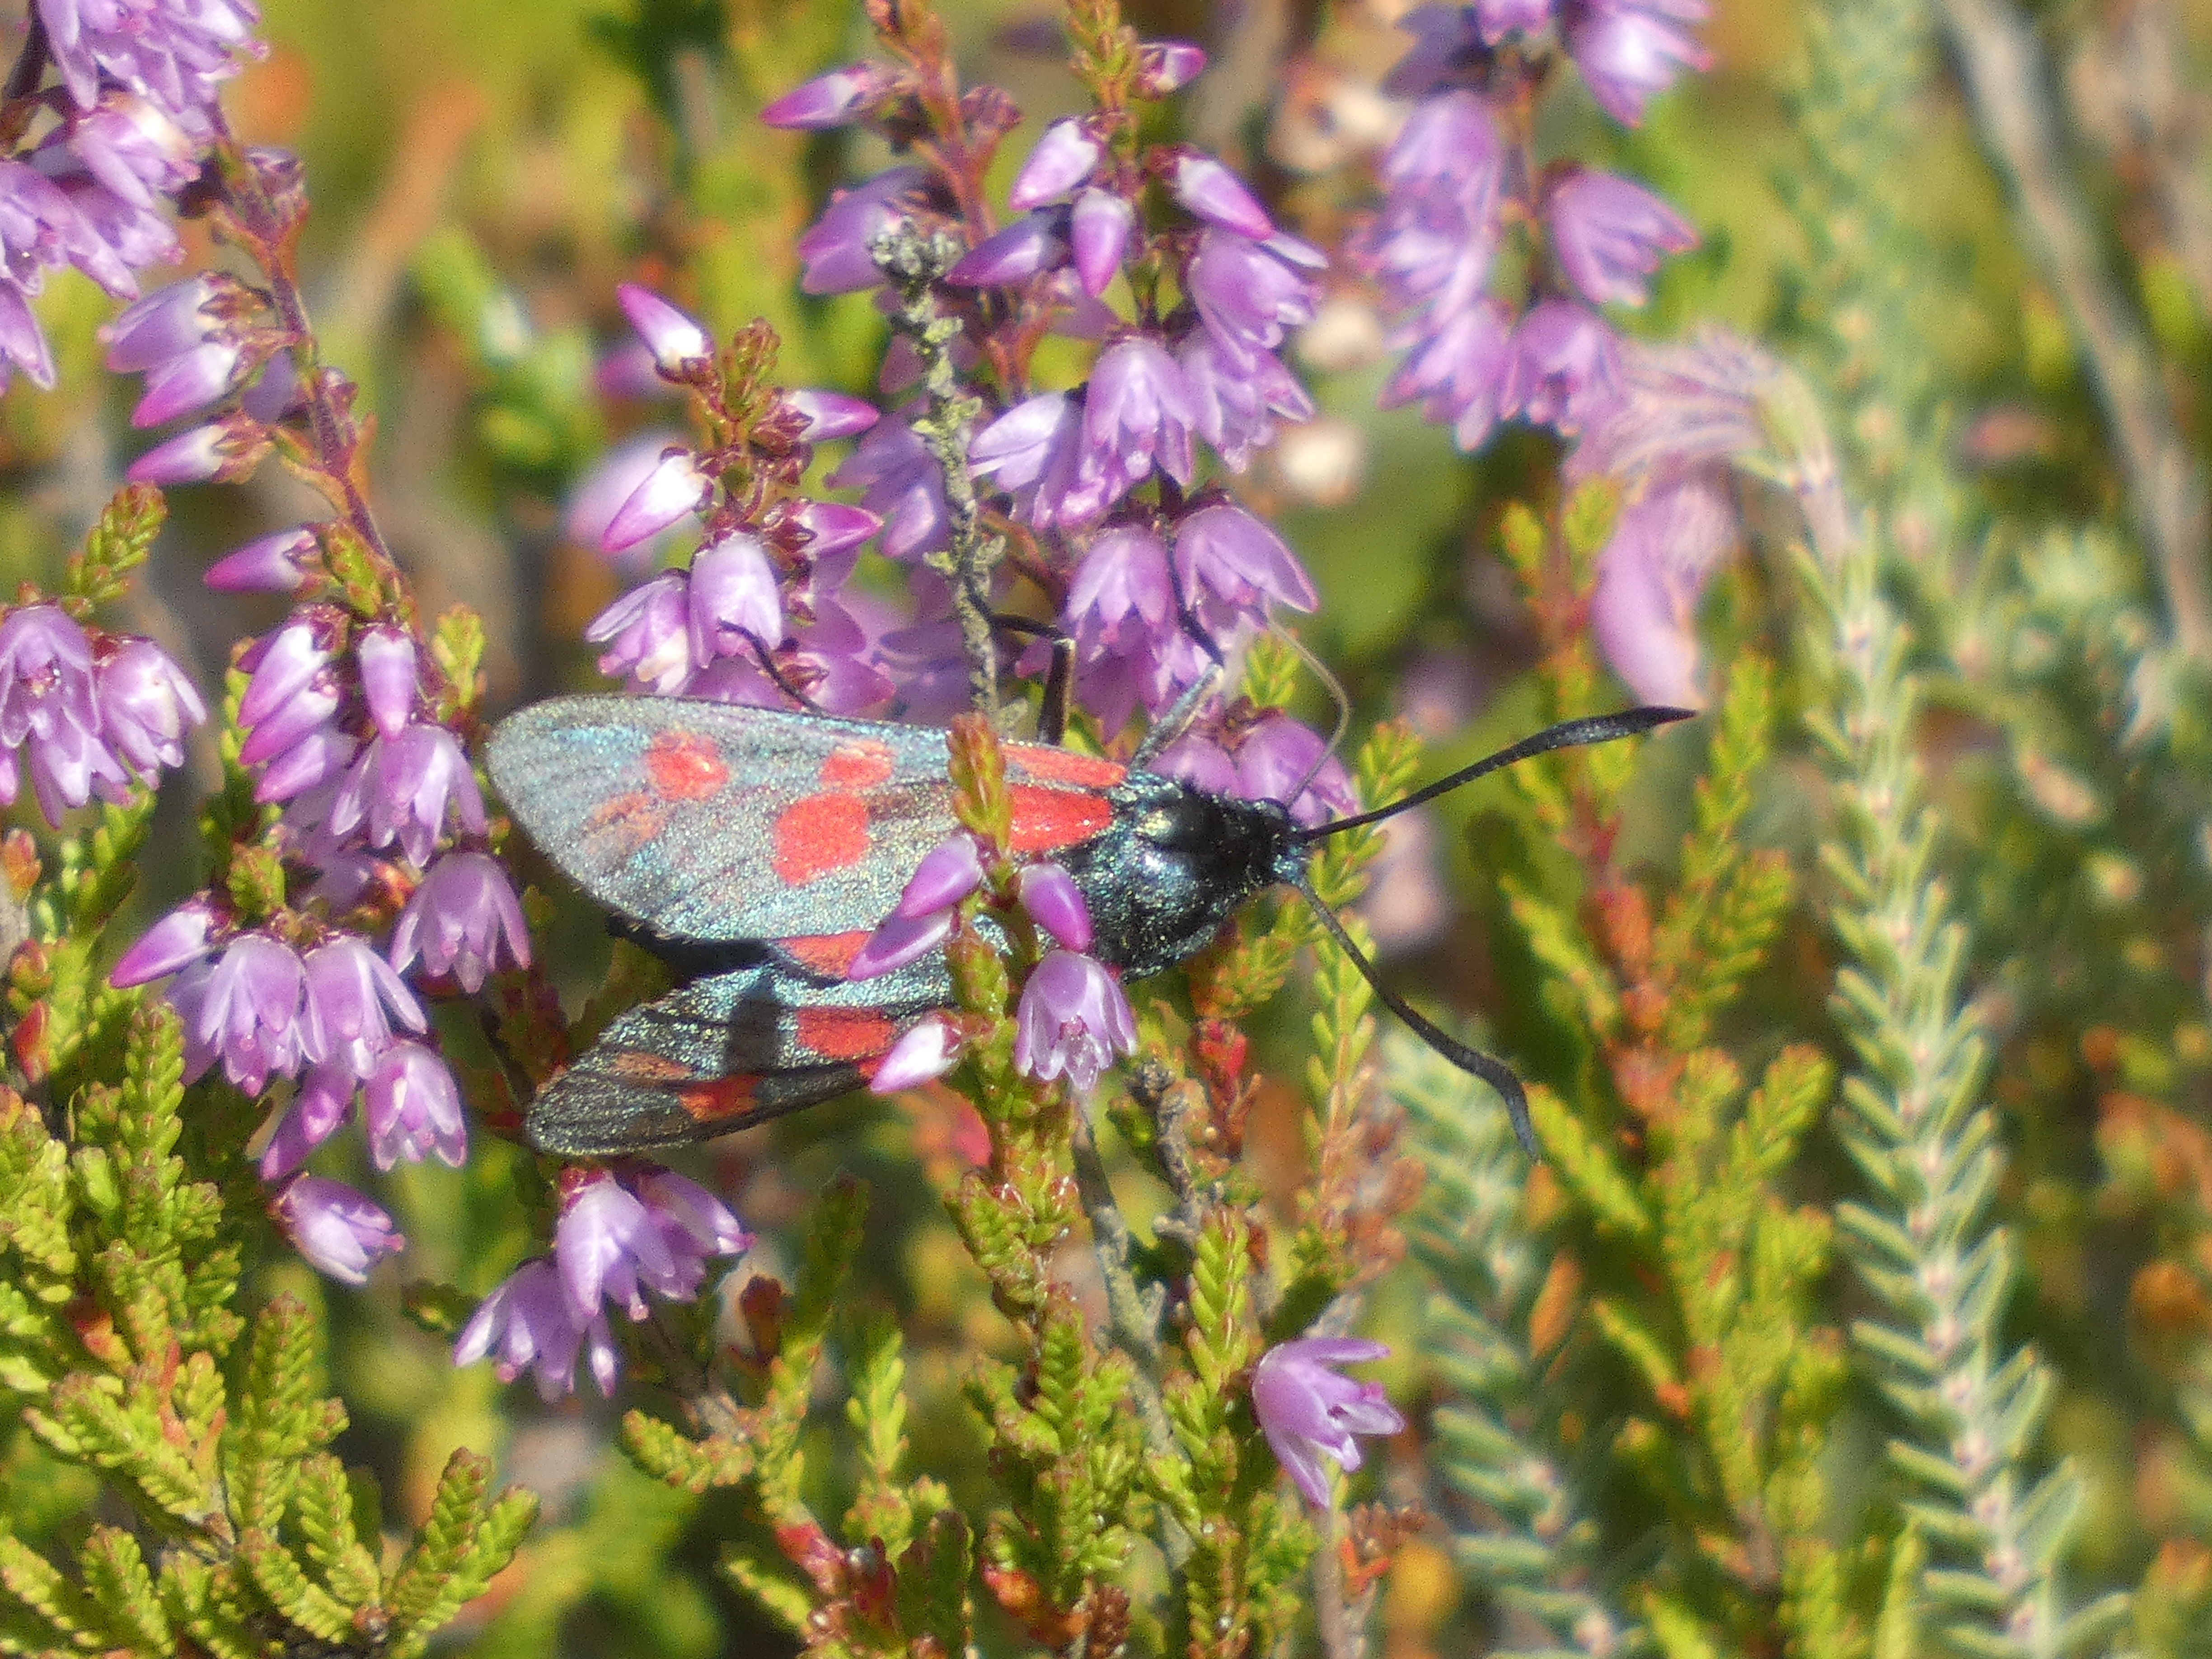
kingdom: Animalia
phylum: Arthropoda
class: Insecta
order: Lepidoptera
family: Zygaenidae
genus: Zygaena
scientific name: Zygaena filipendulae
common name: Seksplettet køllesværmer
